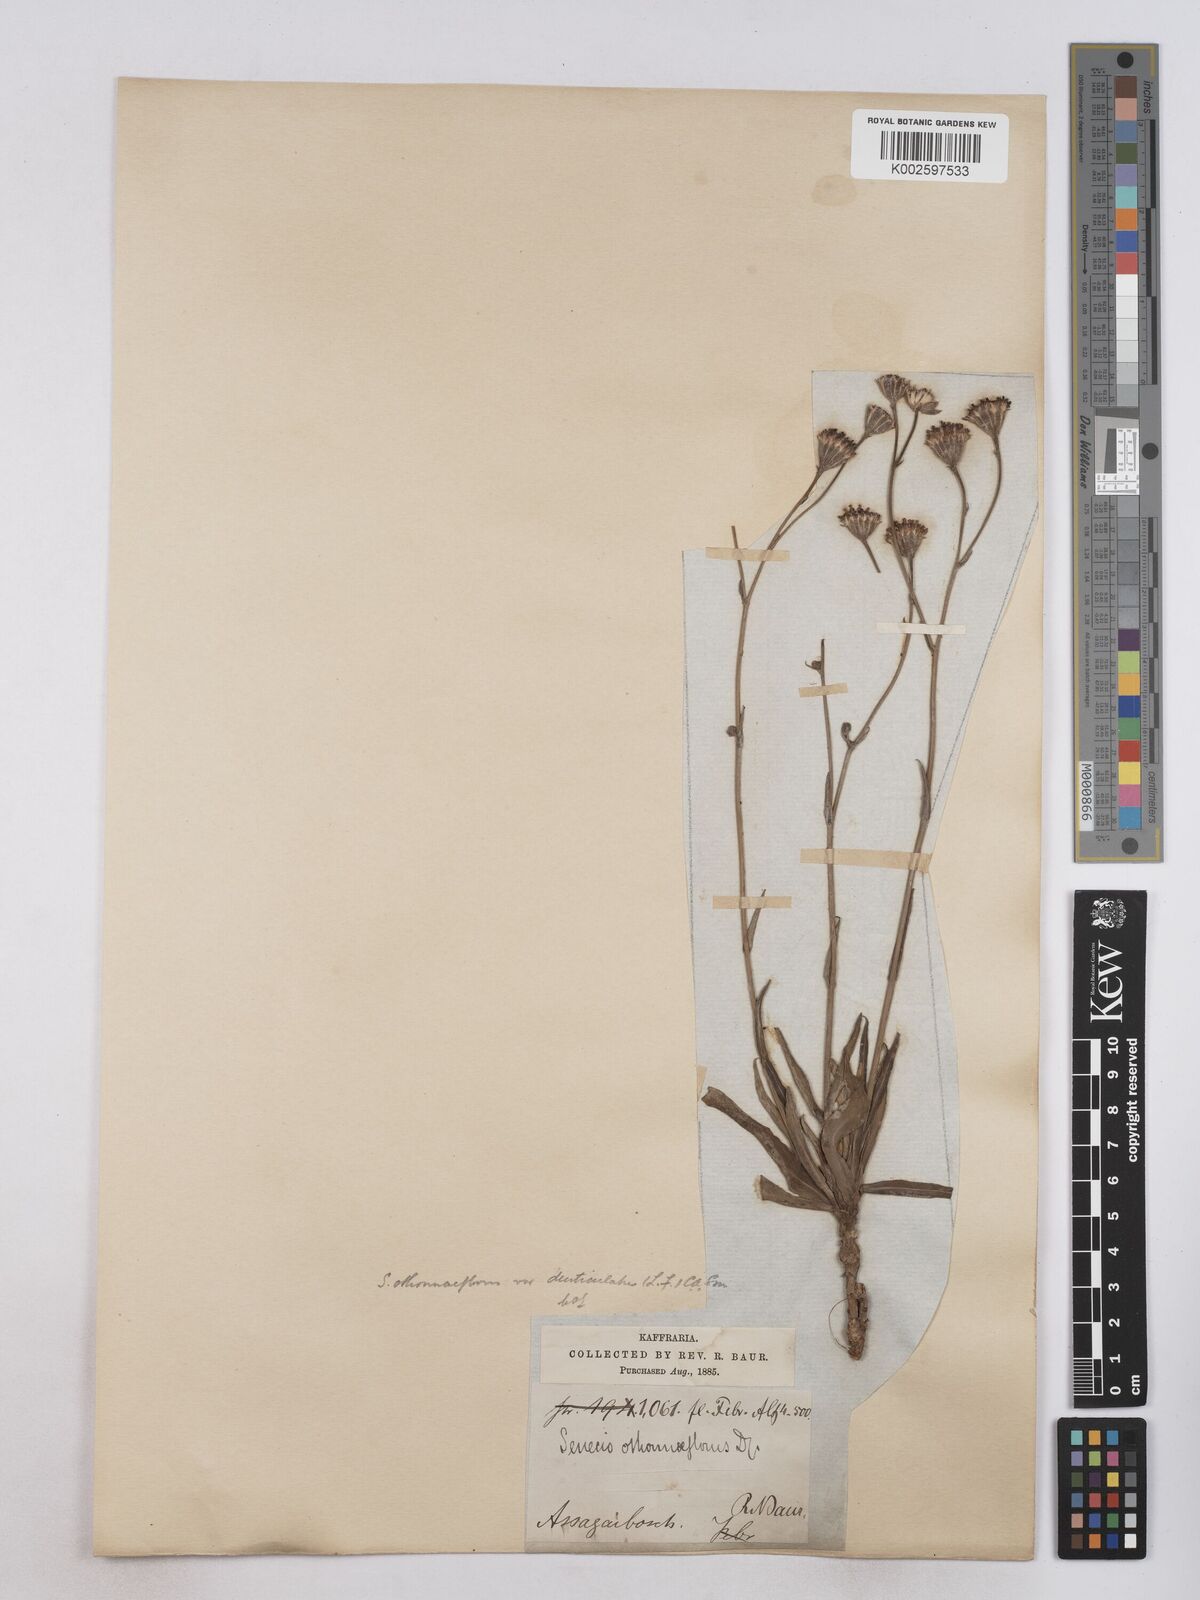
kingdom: Plantae
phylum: Tracheophyta
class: Magnoliopsida
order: Asterales
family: Asteraceae
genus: Senecio
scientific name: Senecio othonniflorus
